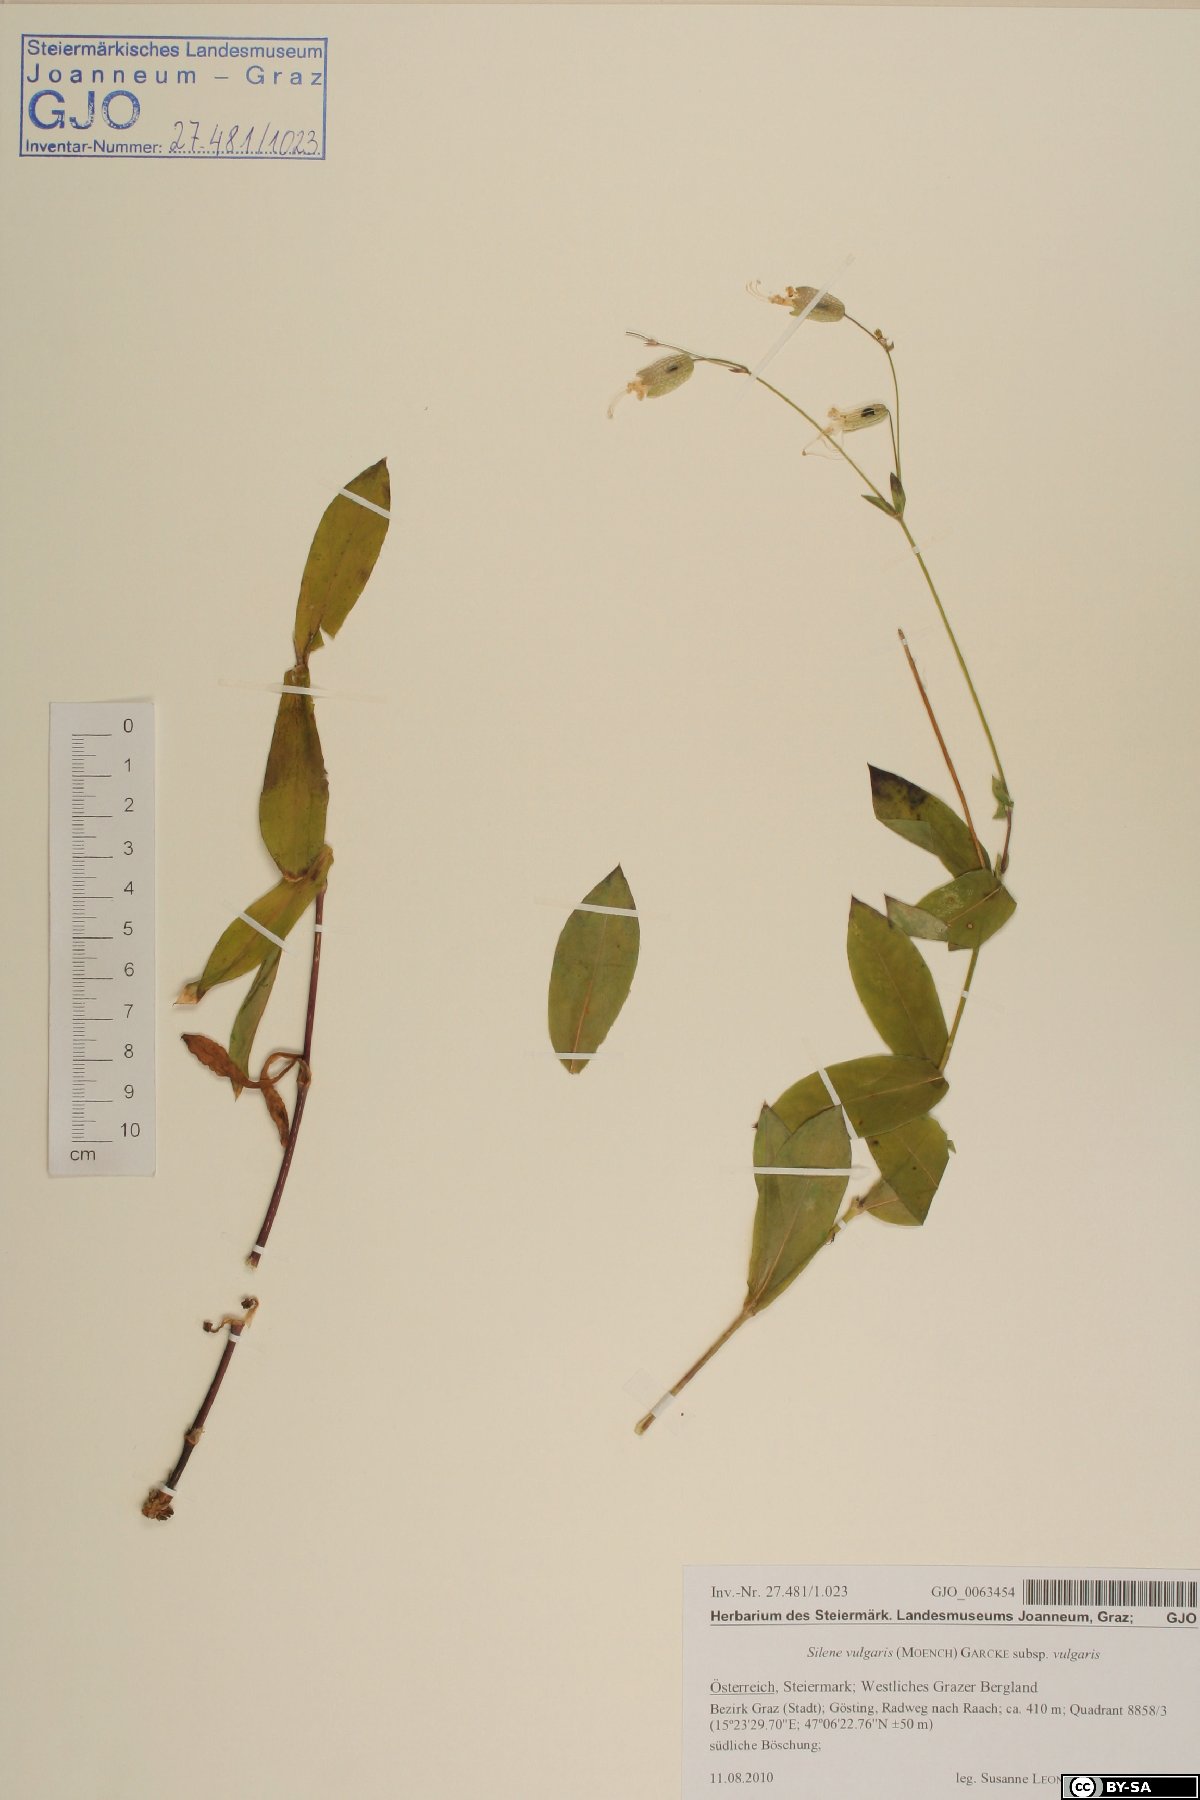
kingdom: Plantae
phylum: Tracheophyta
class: Magnoliopsida
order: Caryophyllales
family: Caryophyllaceae
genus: Silene
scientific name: Silene vulgaris
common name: Bladder campion
